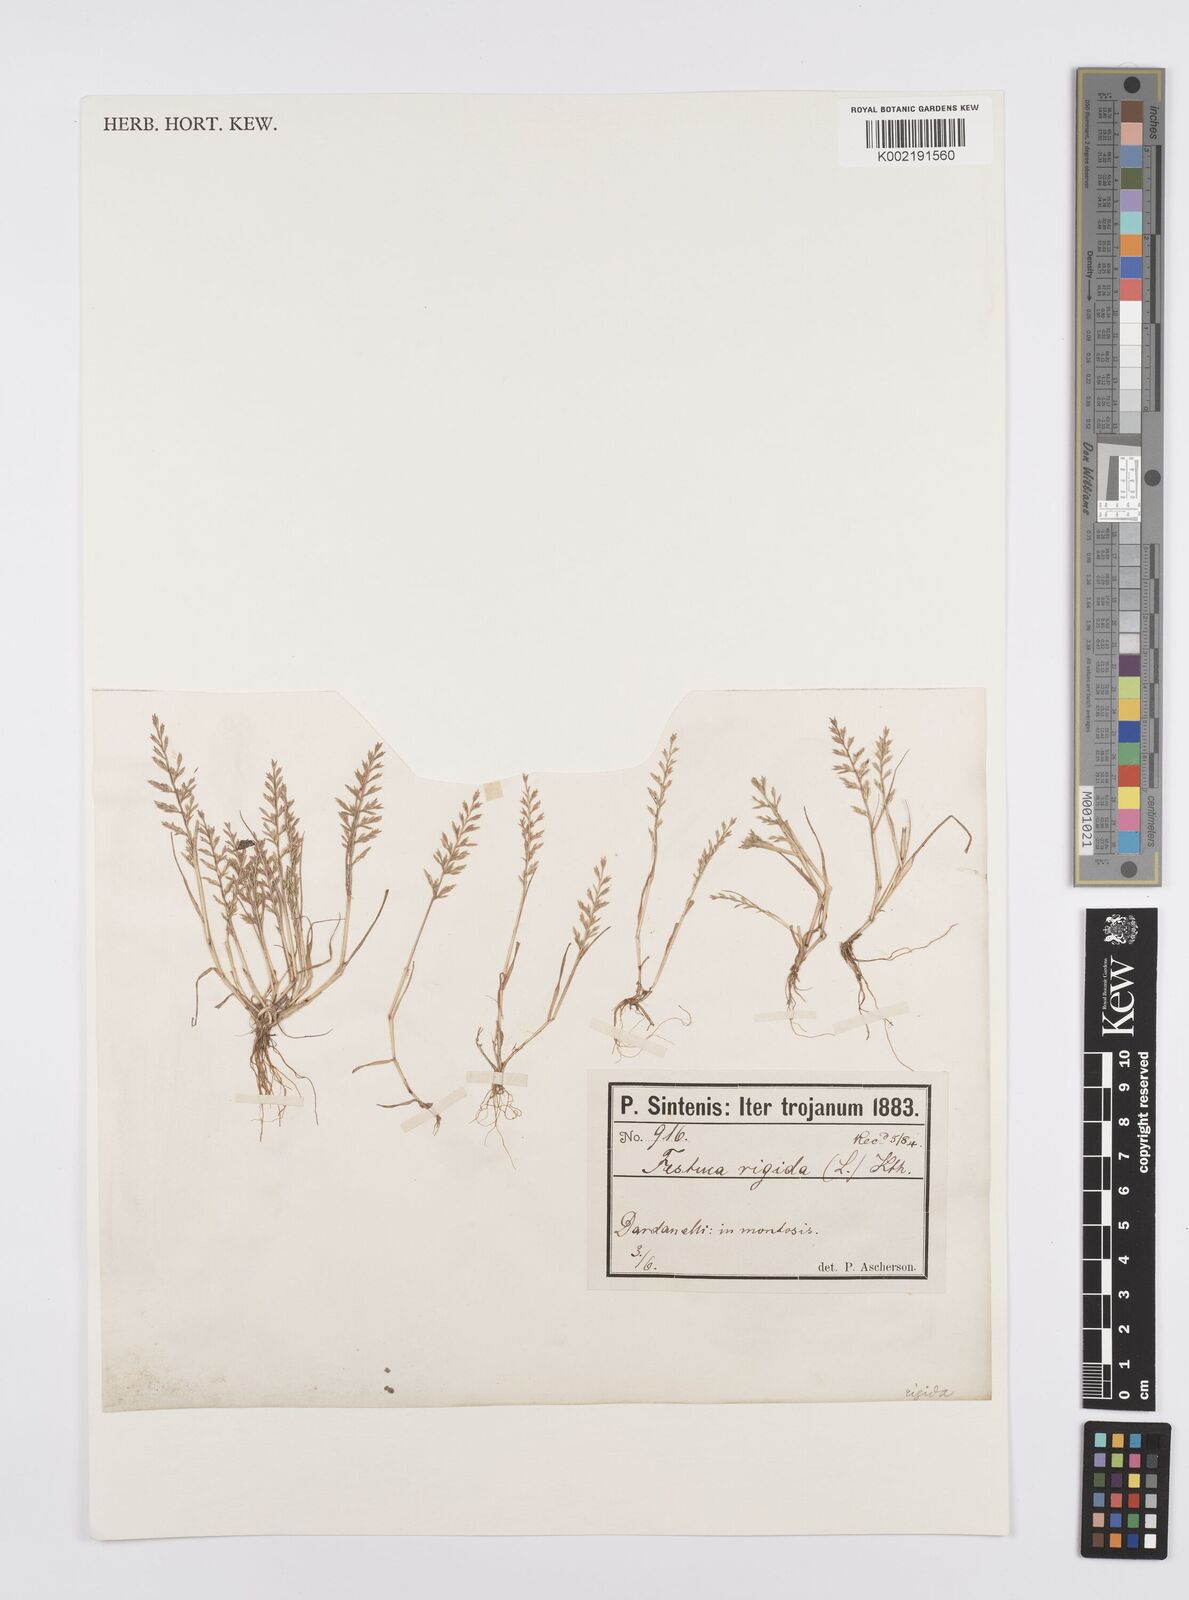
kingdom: Plantae
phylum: Tracheophyta
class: Liliopsida
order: Poales
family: Poaceae
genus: Catapodium
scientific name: Catapodium rigidum
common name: Fern-grass
